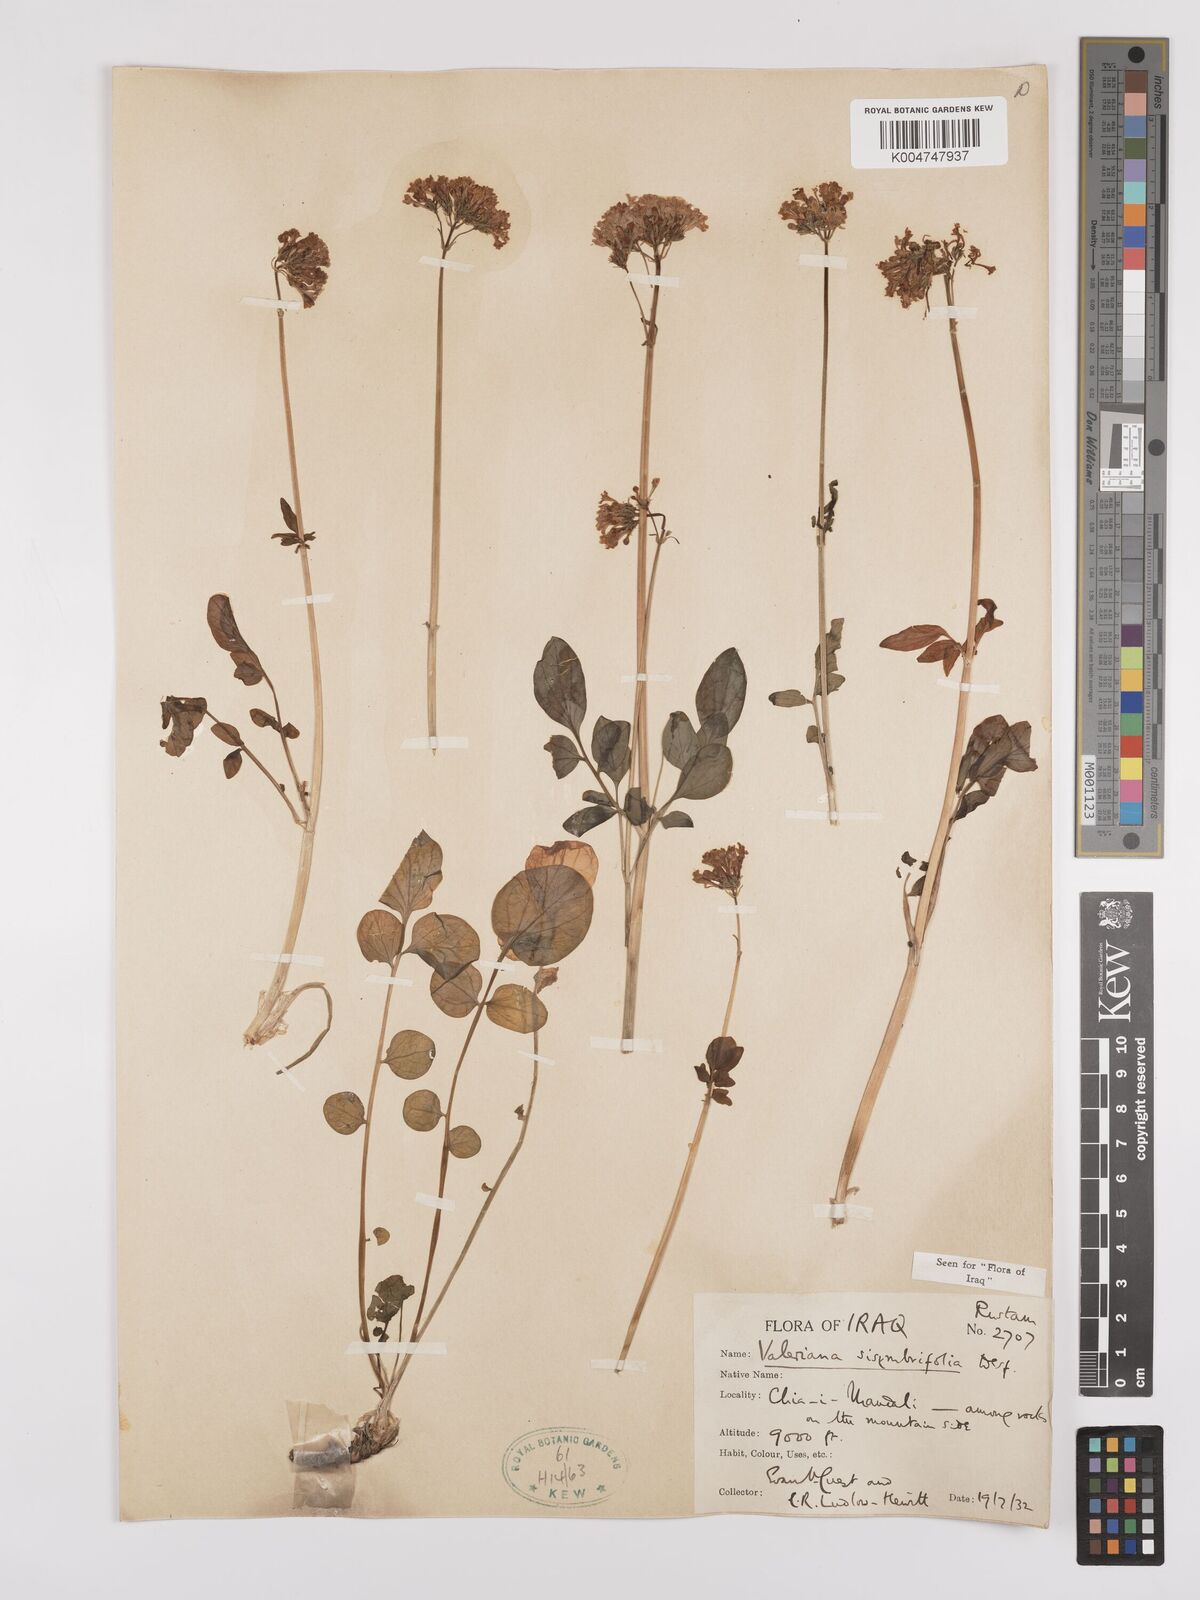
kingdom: Plantae
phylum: Tracheophyta
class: Magnoliopsida
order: Dipsacales
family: Caprifoliaceae
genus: Valeriana
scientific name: Valeriana
